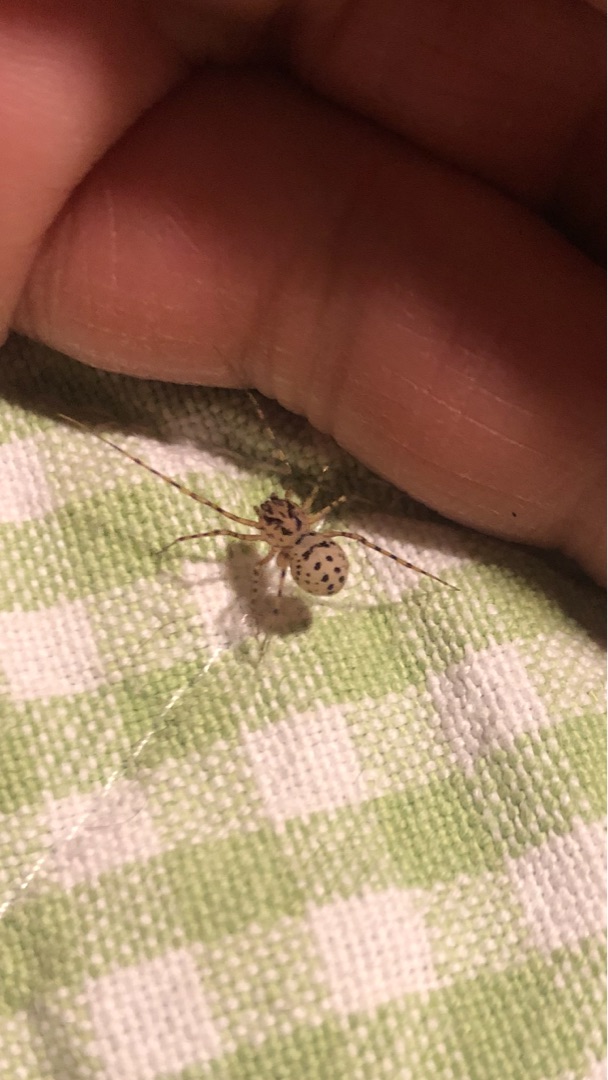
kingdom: Animalia
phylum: Arthropoda
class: Arachnida
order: Araneae
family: Scytodidae
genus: Scytodes
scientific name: Scytodes thoracica
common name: Spytteedderkop
